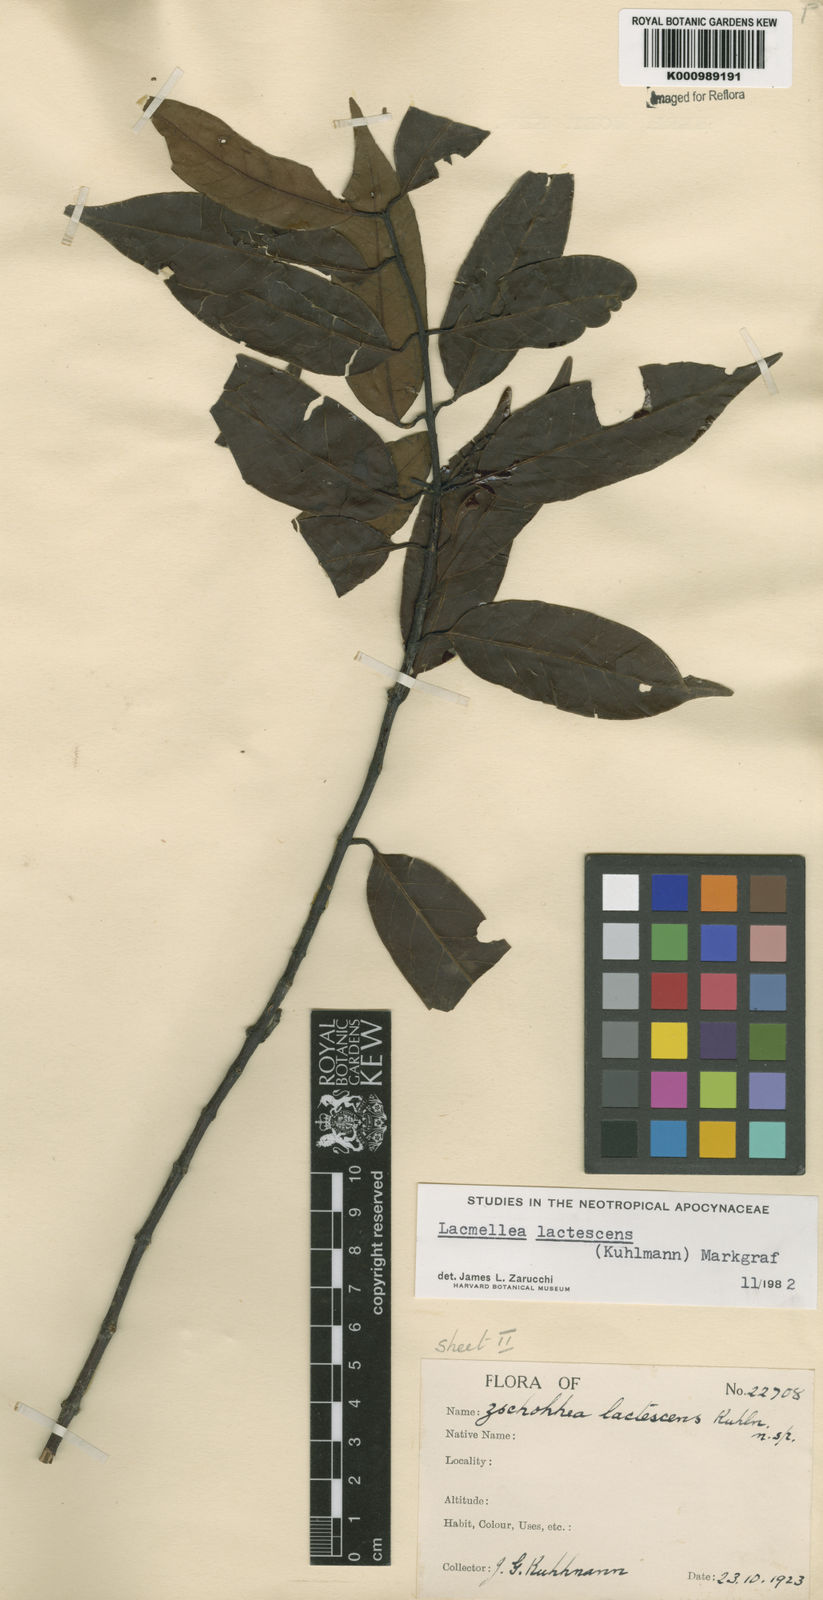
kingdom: Plantae
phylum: Tracheophyta
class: Magnoliopsida
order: Gentianales
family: Apocynaceae
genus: Lacmellea
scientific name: Lacmellea
